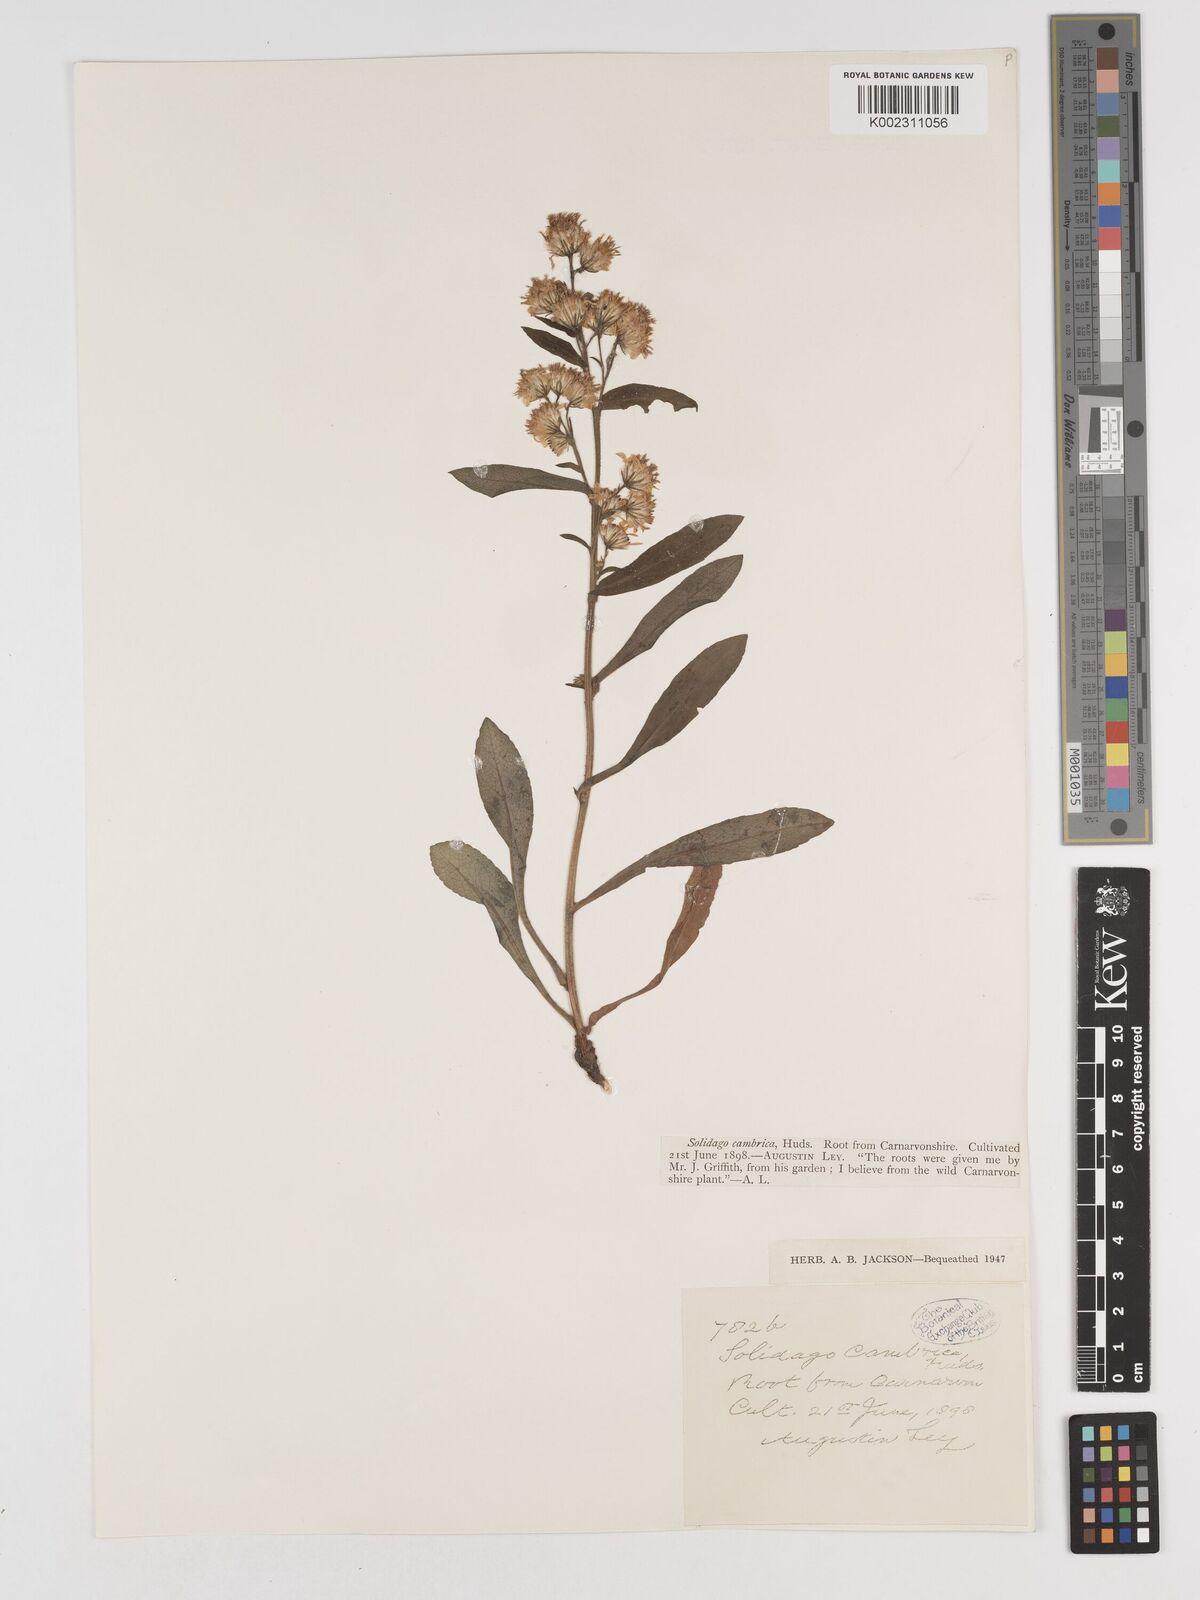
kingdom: Plantae
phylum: Tracheophyta
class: Magnoliopsida
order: Asterales
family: Asteraceae
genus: Solidago
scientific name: Solidago virgaurea
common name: Goldenrod
